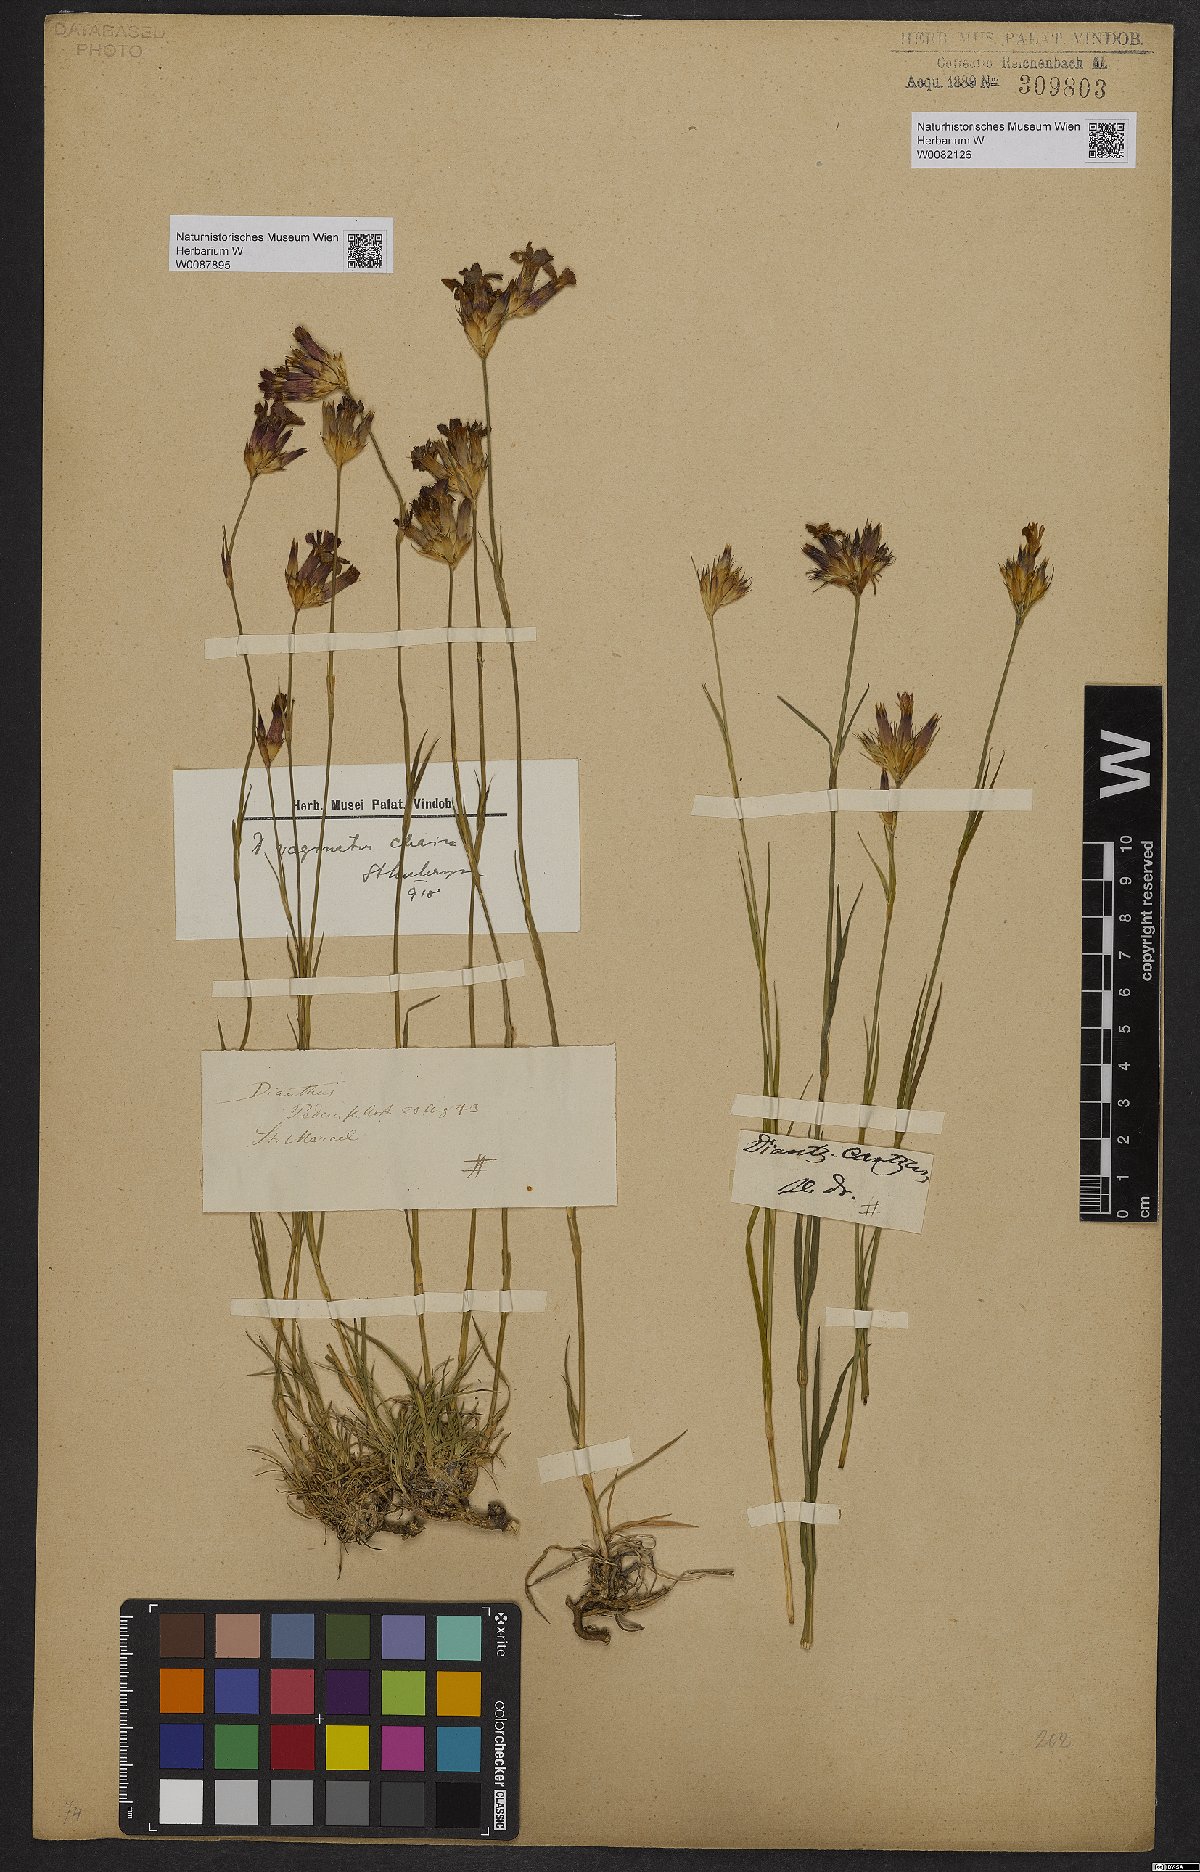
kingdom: Plantae
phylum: Tracheophyta
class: Magnoliopsida
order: Caryophyllales
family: Caryophyllaceae
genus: Dianthus
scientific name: Dianthus carthusianorum
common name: Carthusian pink
